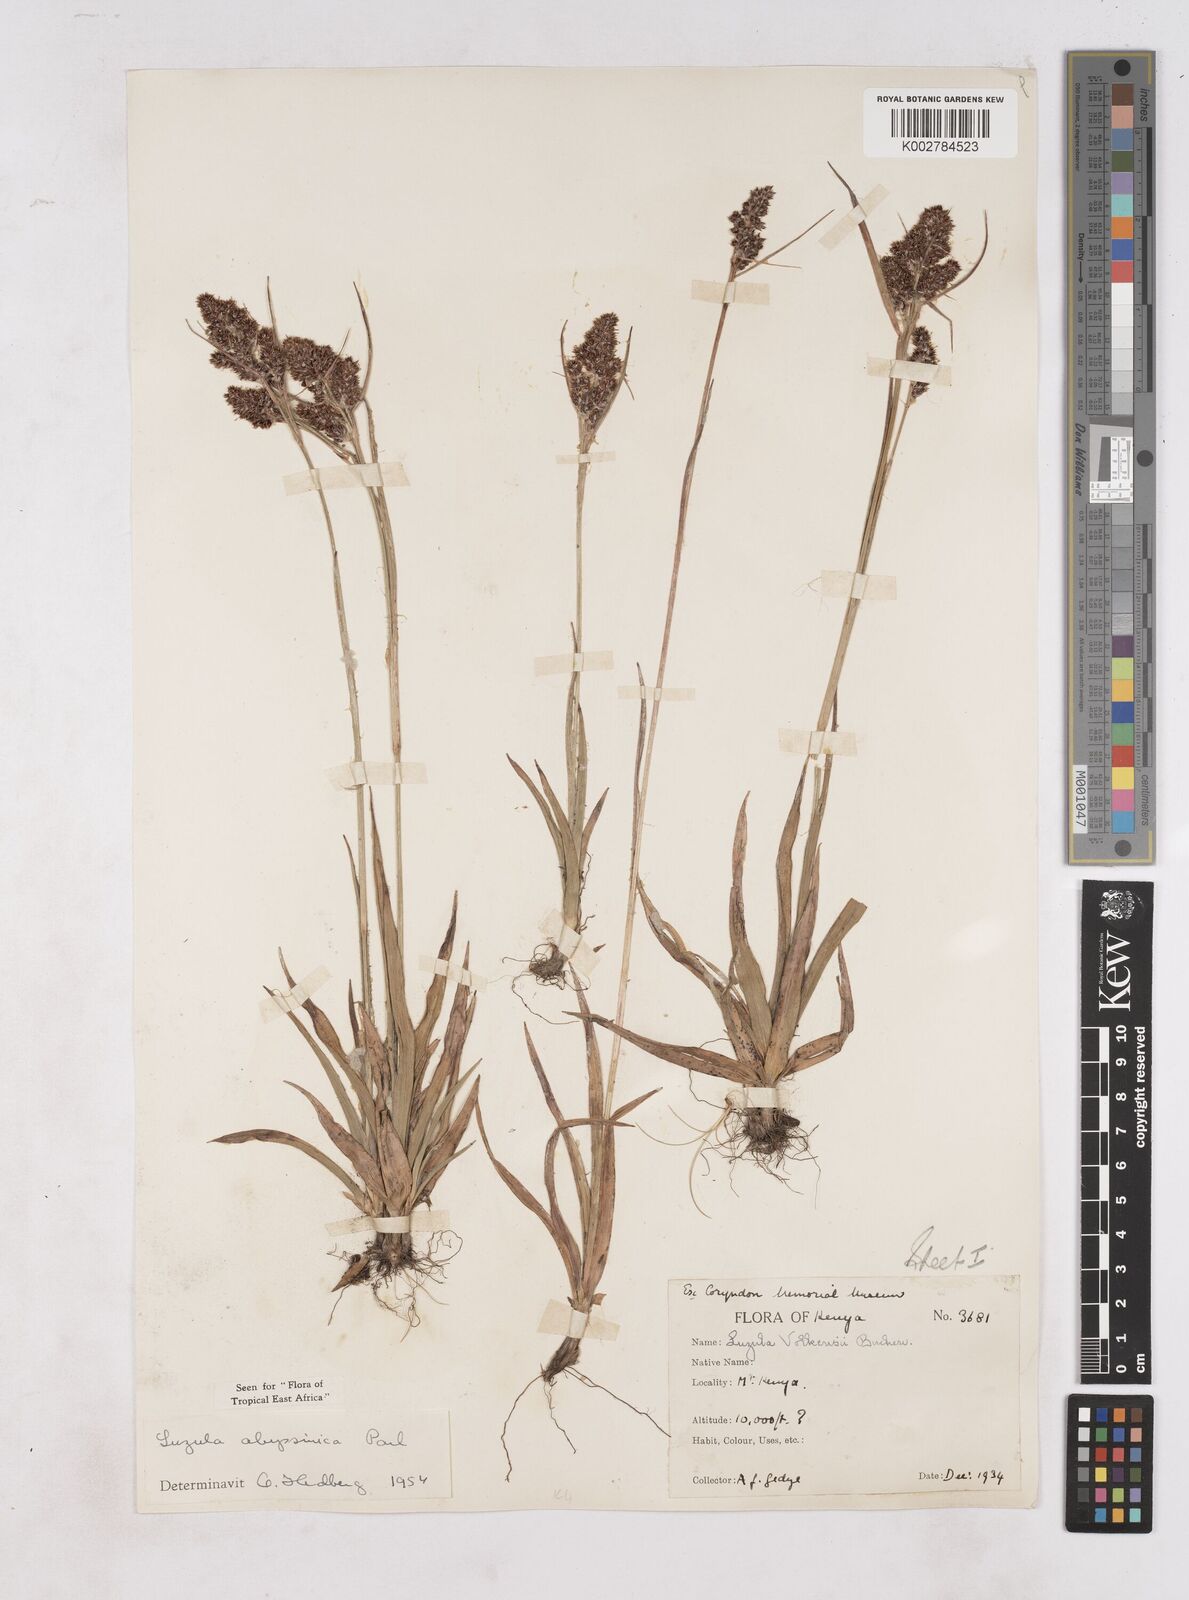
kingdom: Plantae
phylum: Tracheophyta
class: Liliopsida
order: Poales
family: Juncaceae
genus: Luzula
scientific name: Luzula abyssinica
